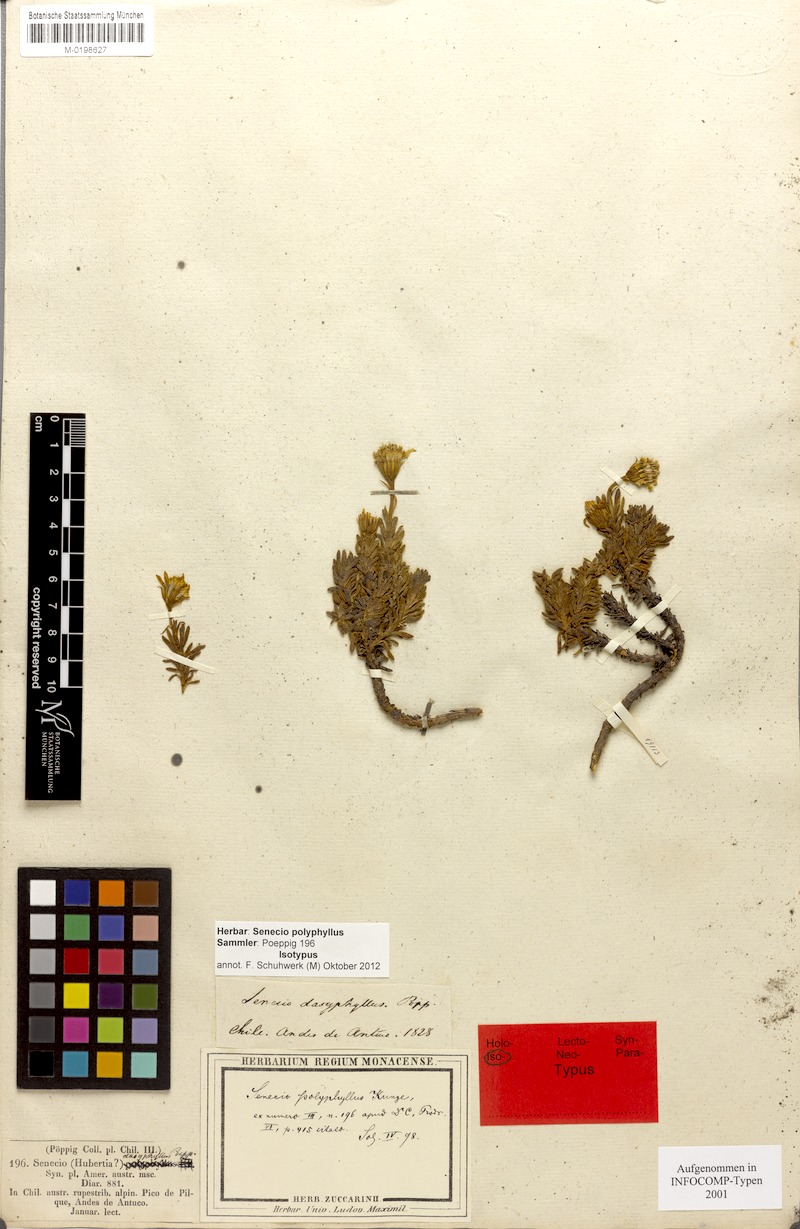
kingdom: Plantae
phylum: Tracheophyta
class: Magnoliopsida
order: Asterales
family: Asteraceae
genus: Senecio
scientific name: Senecio polyphyllus
